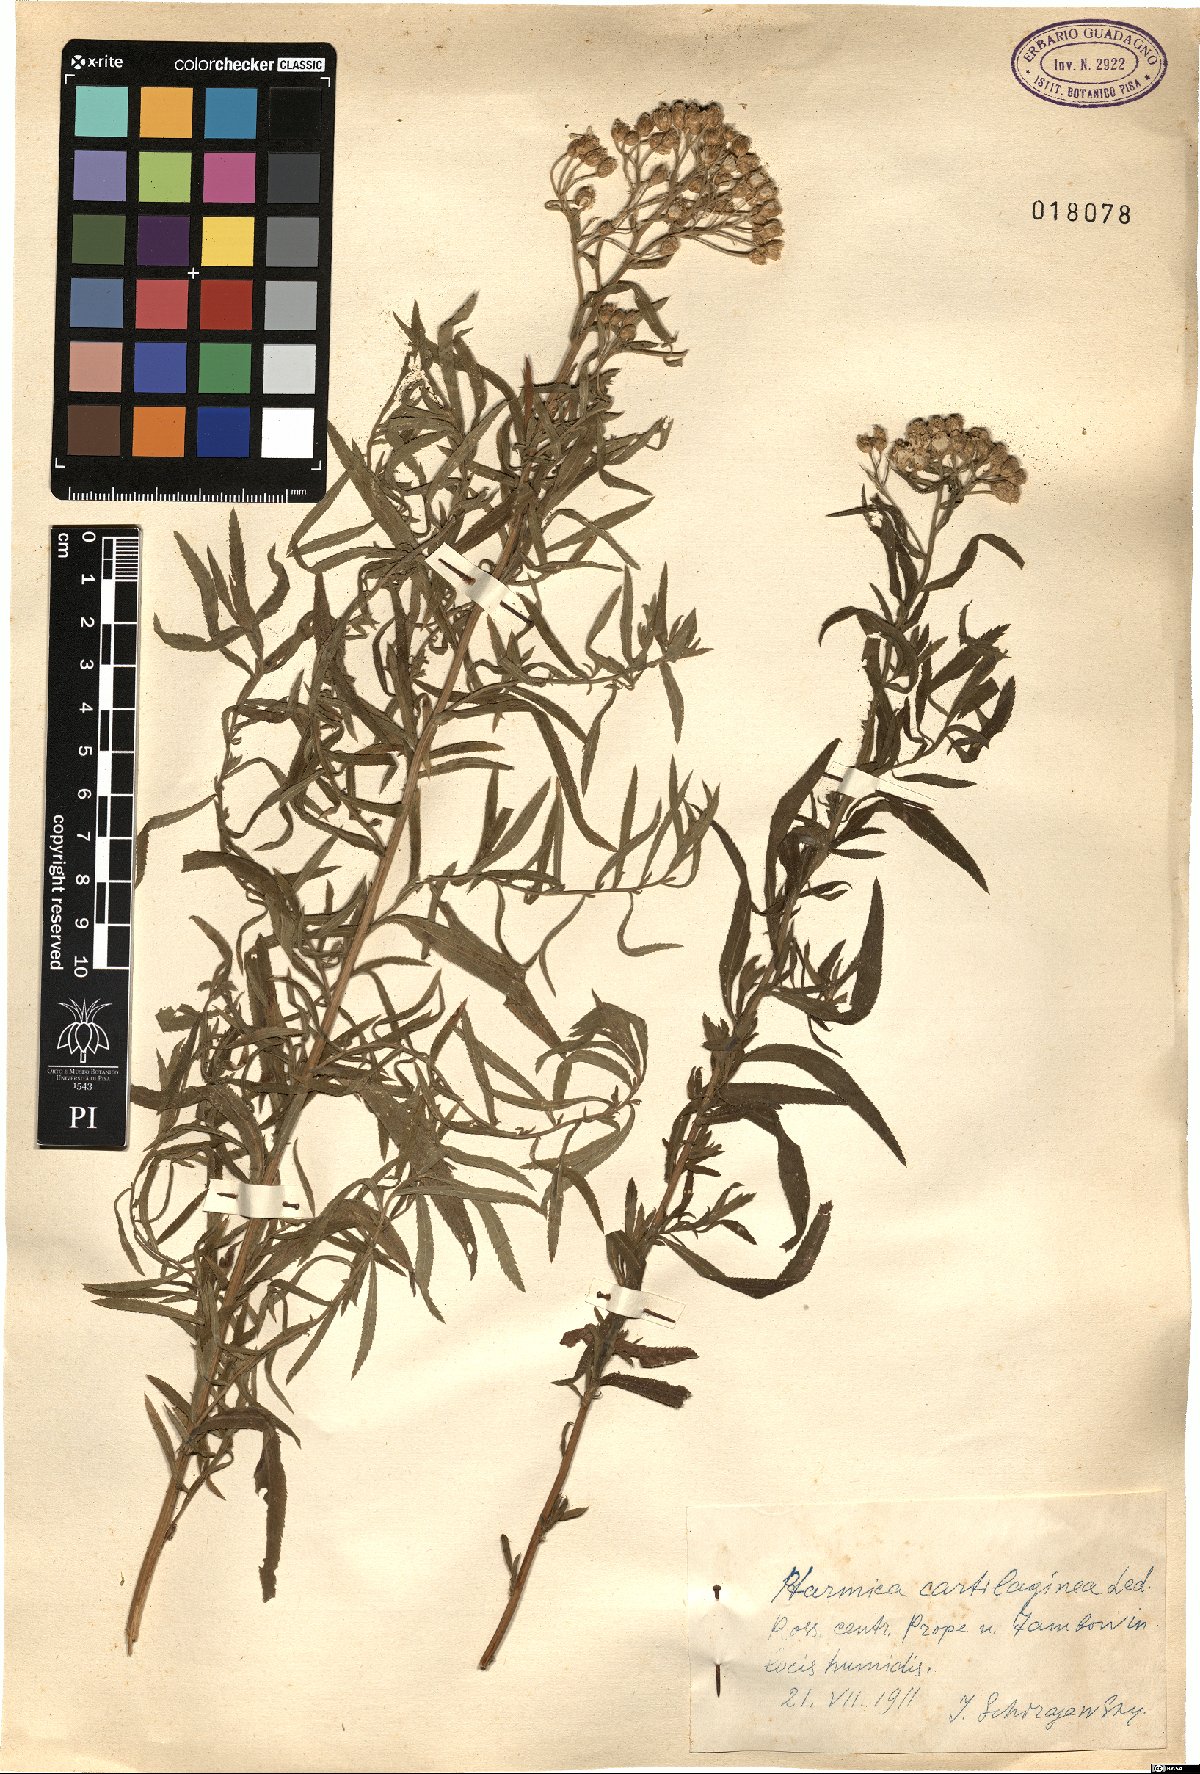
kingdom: Plantae
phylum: Tracheophyta
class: Magnoliopsida
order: Asterales
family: Asteraceae
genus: Achillea
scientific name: Achillea cartilaginea
